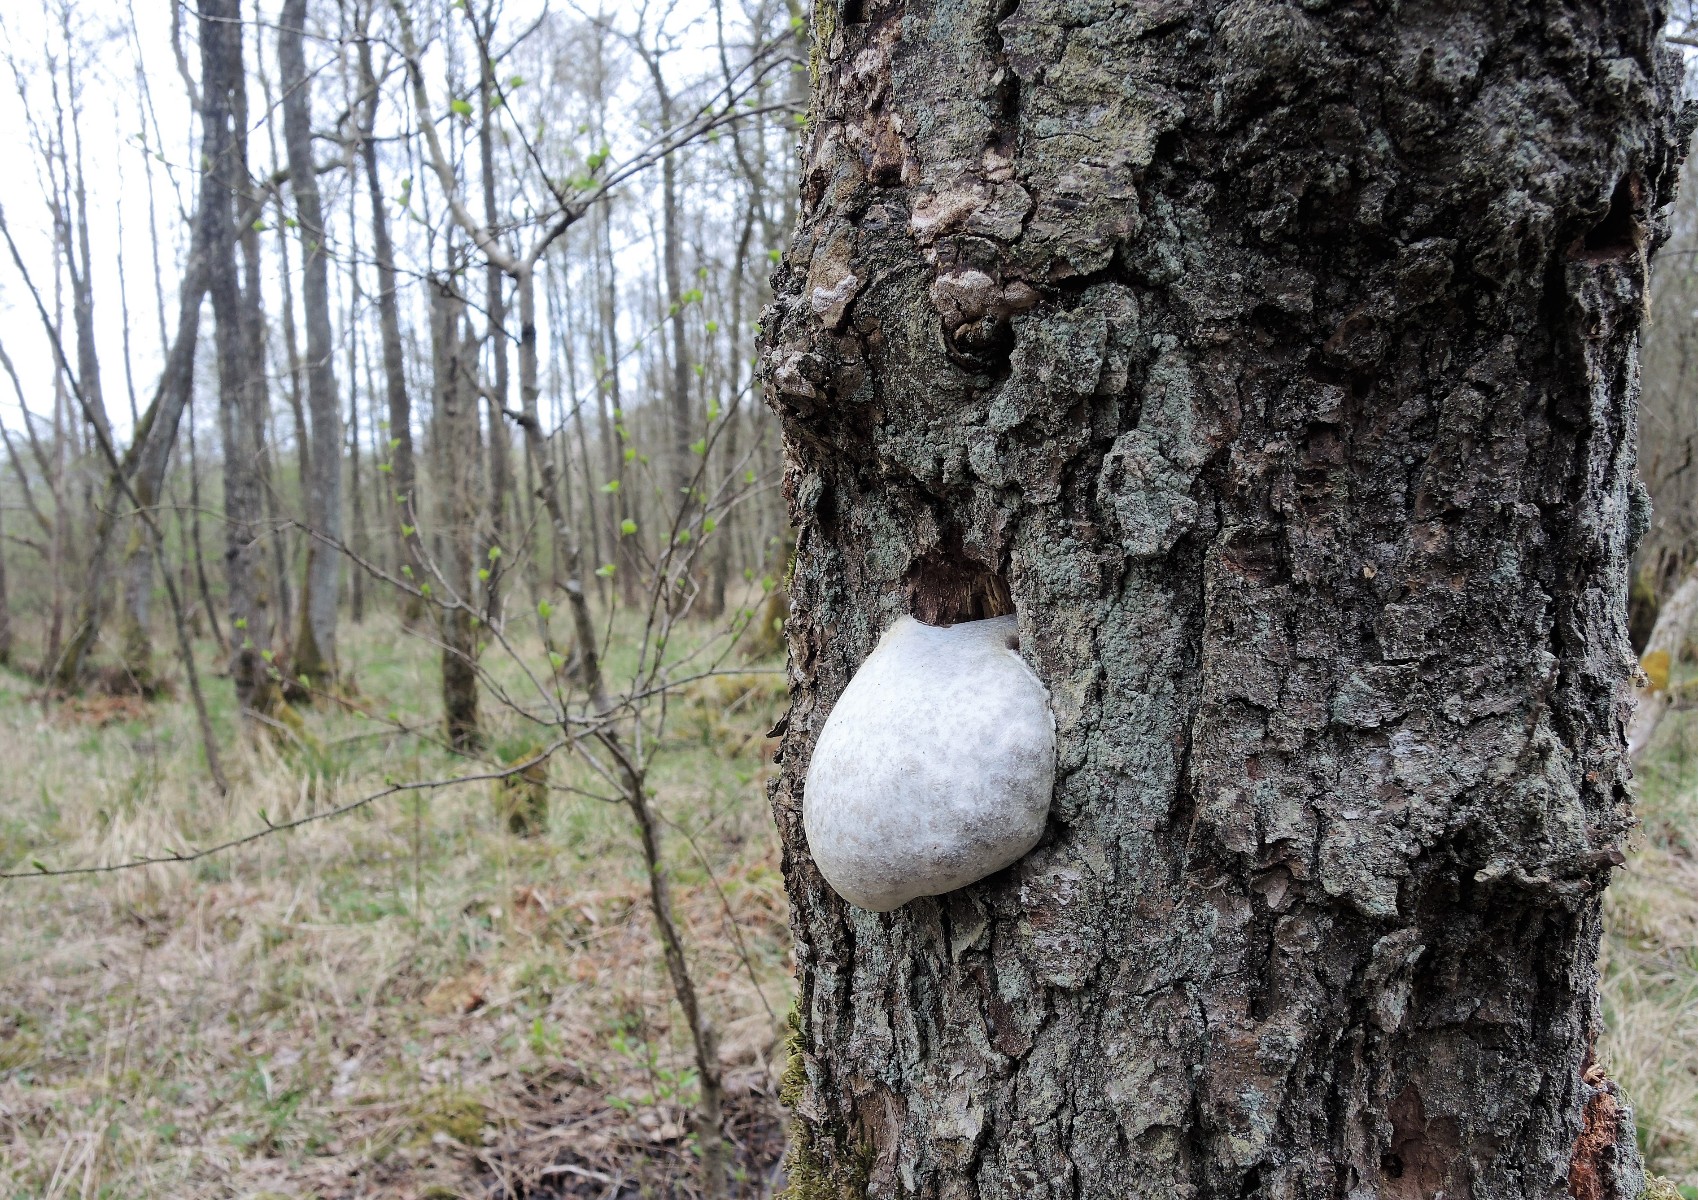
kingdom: Protozoa
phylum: Mycetozoa
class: Myxomycetes
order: Cribrariales
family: Tubiferaceae
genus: Reticularia
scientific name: Reticularia lycoperdon
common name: skinnende støvpude
